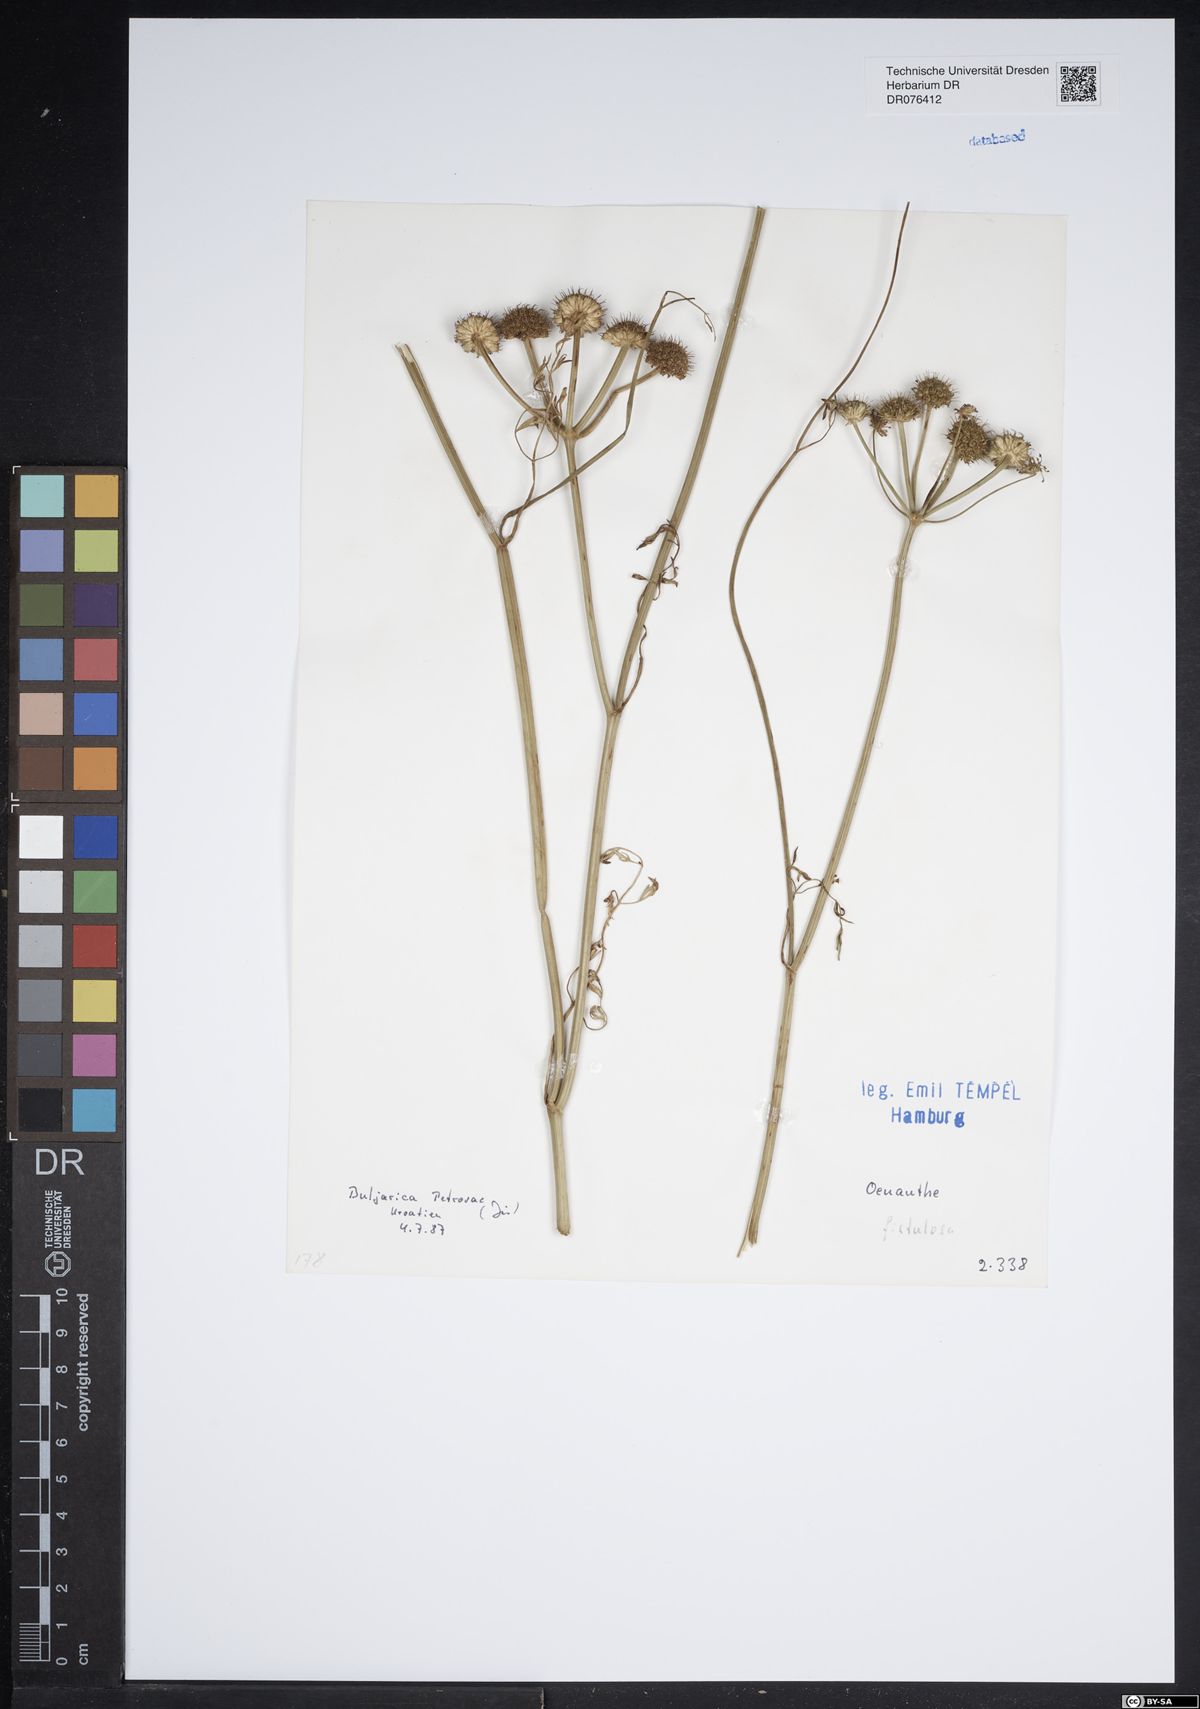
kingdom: Plantae
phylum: Tracheophyta
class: Magnoliopsida
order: Apiales
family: Apiaceae
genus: Oenanthe
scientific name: Oenanthe fistulosa
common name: Tubular water-dropwort
